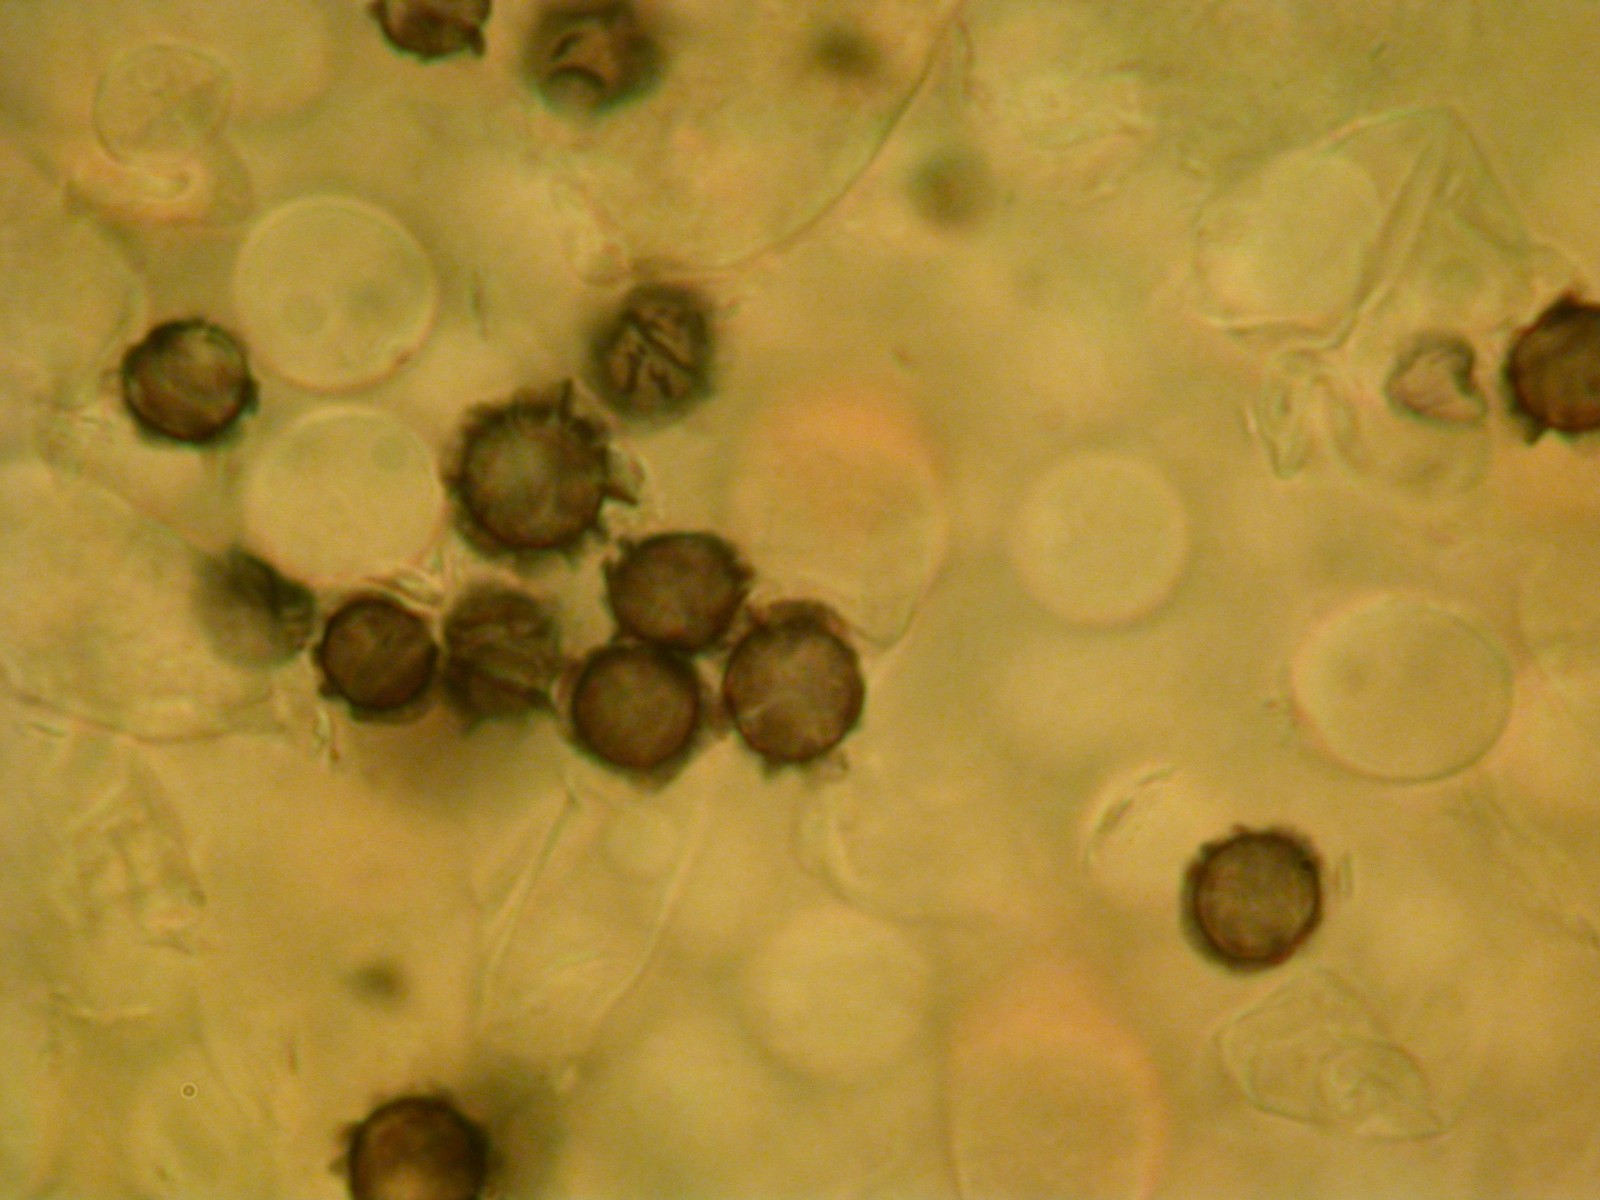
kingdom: Fungi
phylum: Basidiomycota
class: Agaricomycetes
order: Russulales
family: Russulaceae
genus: Lactarius
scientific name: Lactarius azonites
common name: røggrå mælkehat
